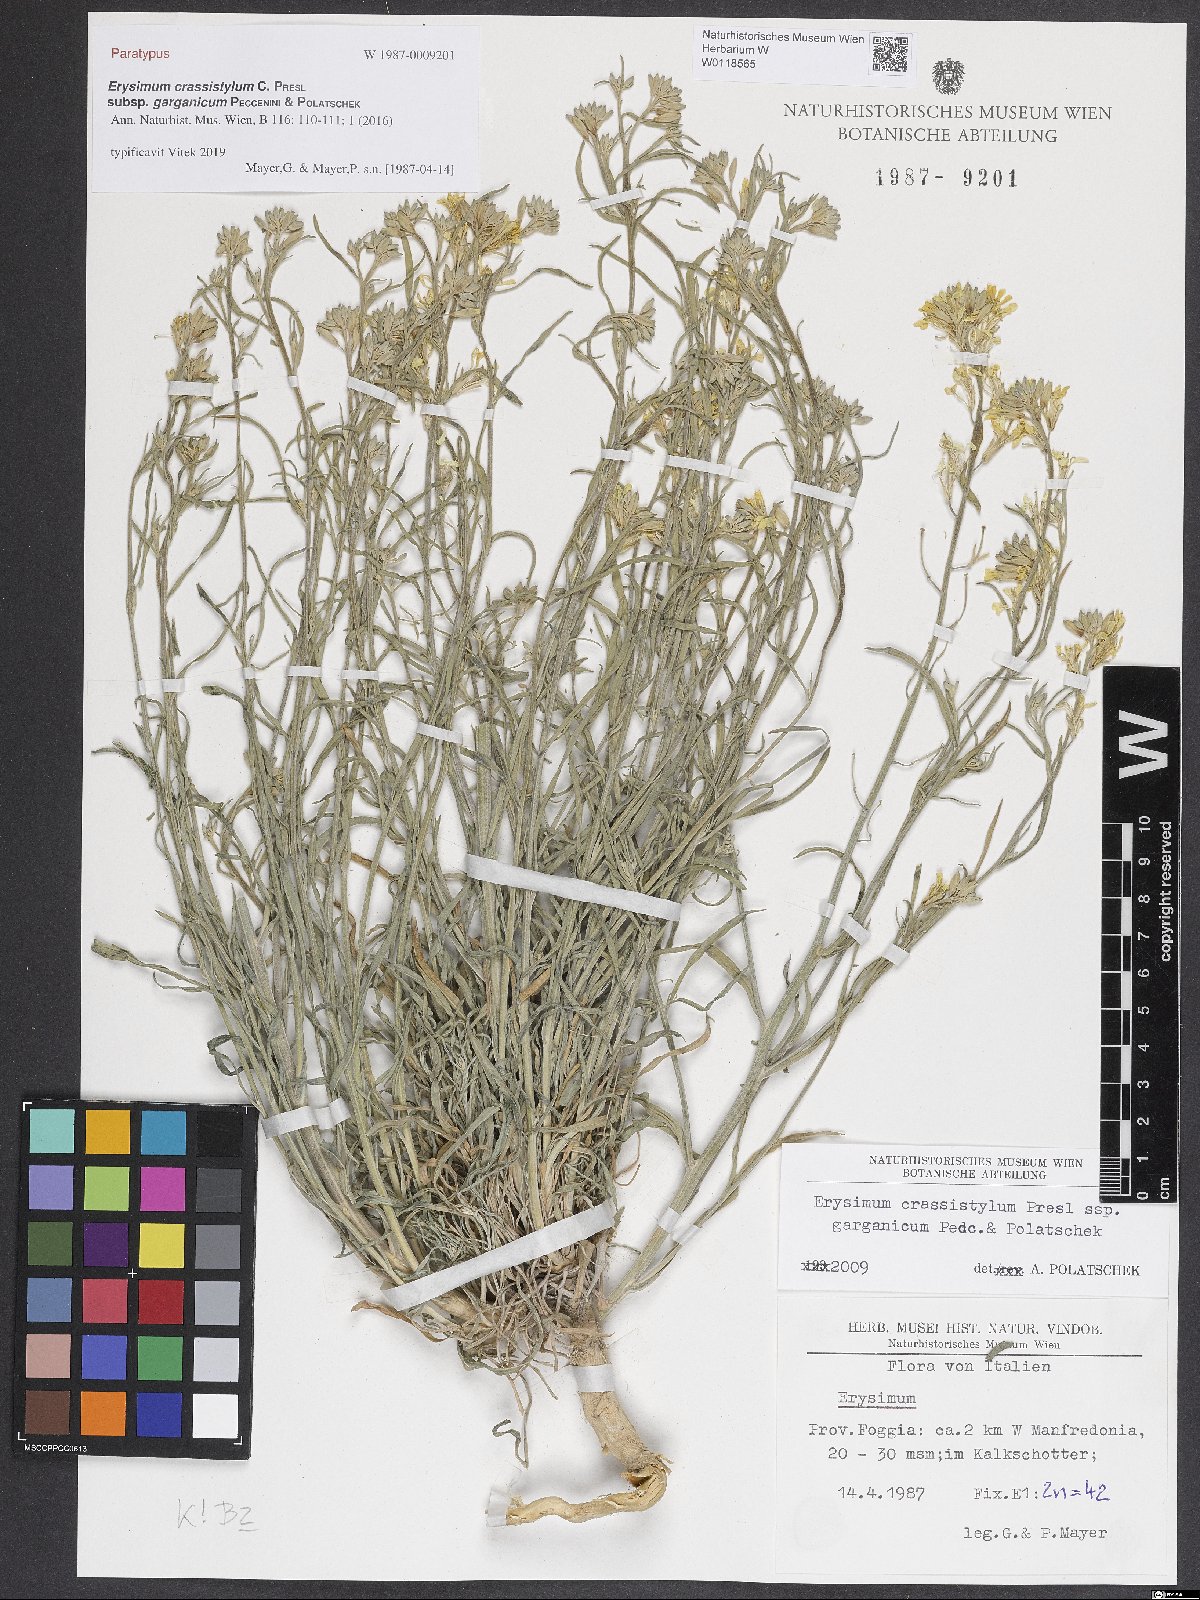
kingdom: Plantae
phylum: Tracheophyta
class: Magnoliopsida
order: Brassicales
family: Brassicaceae
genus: Erysimum
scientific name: Erysimum crassistylum
